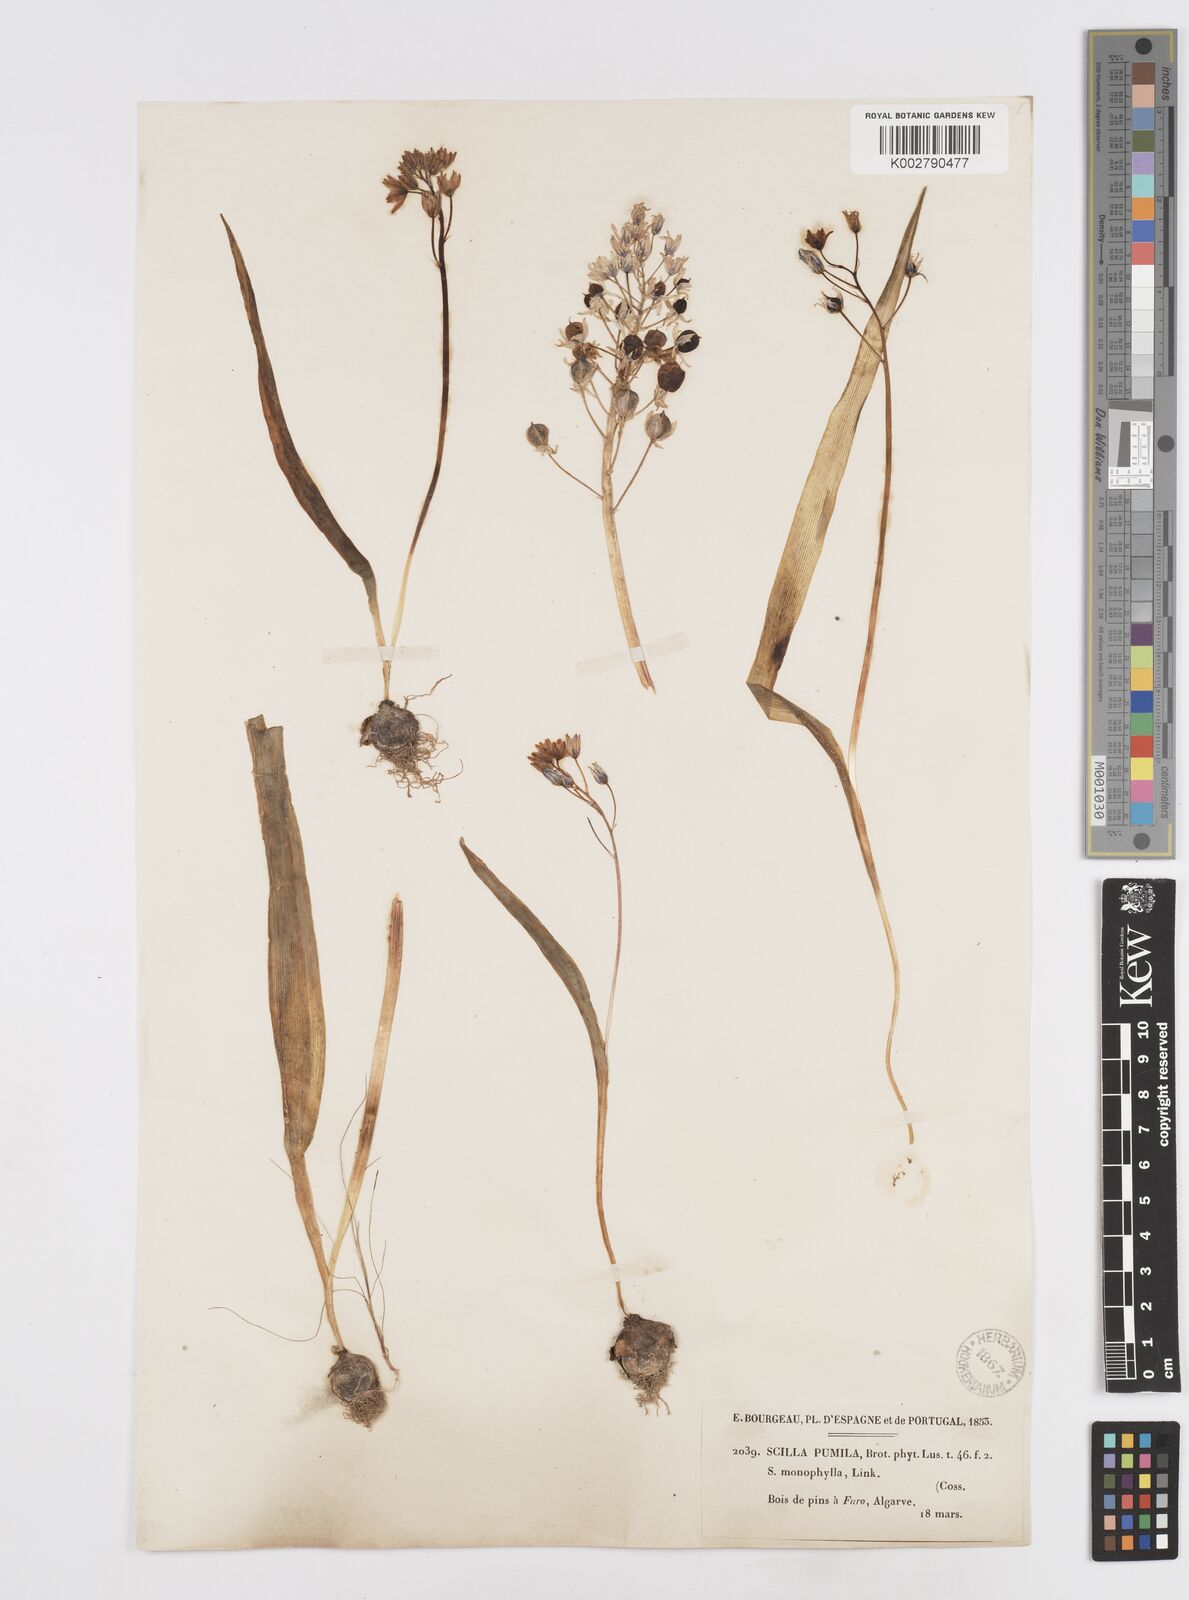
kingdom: Plantae
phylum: Tracheophyta
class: Liliopsida
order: Asparagales
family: Asparagaceae
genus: Scilla
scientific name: Scilla monophyllos
